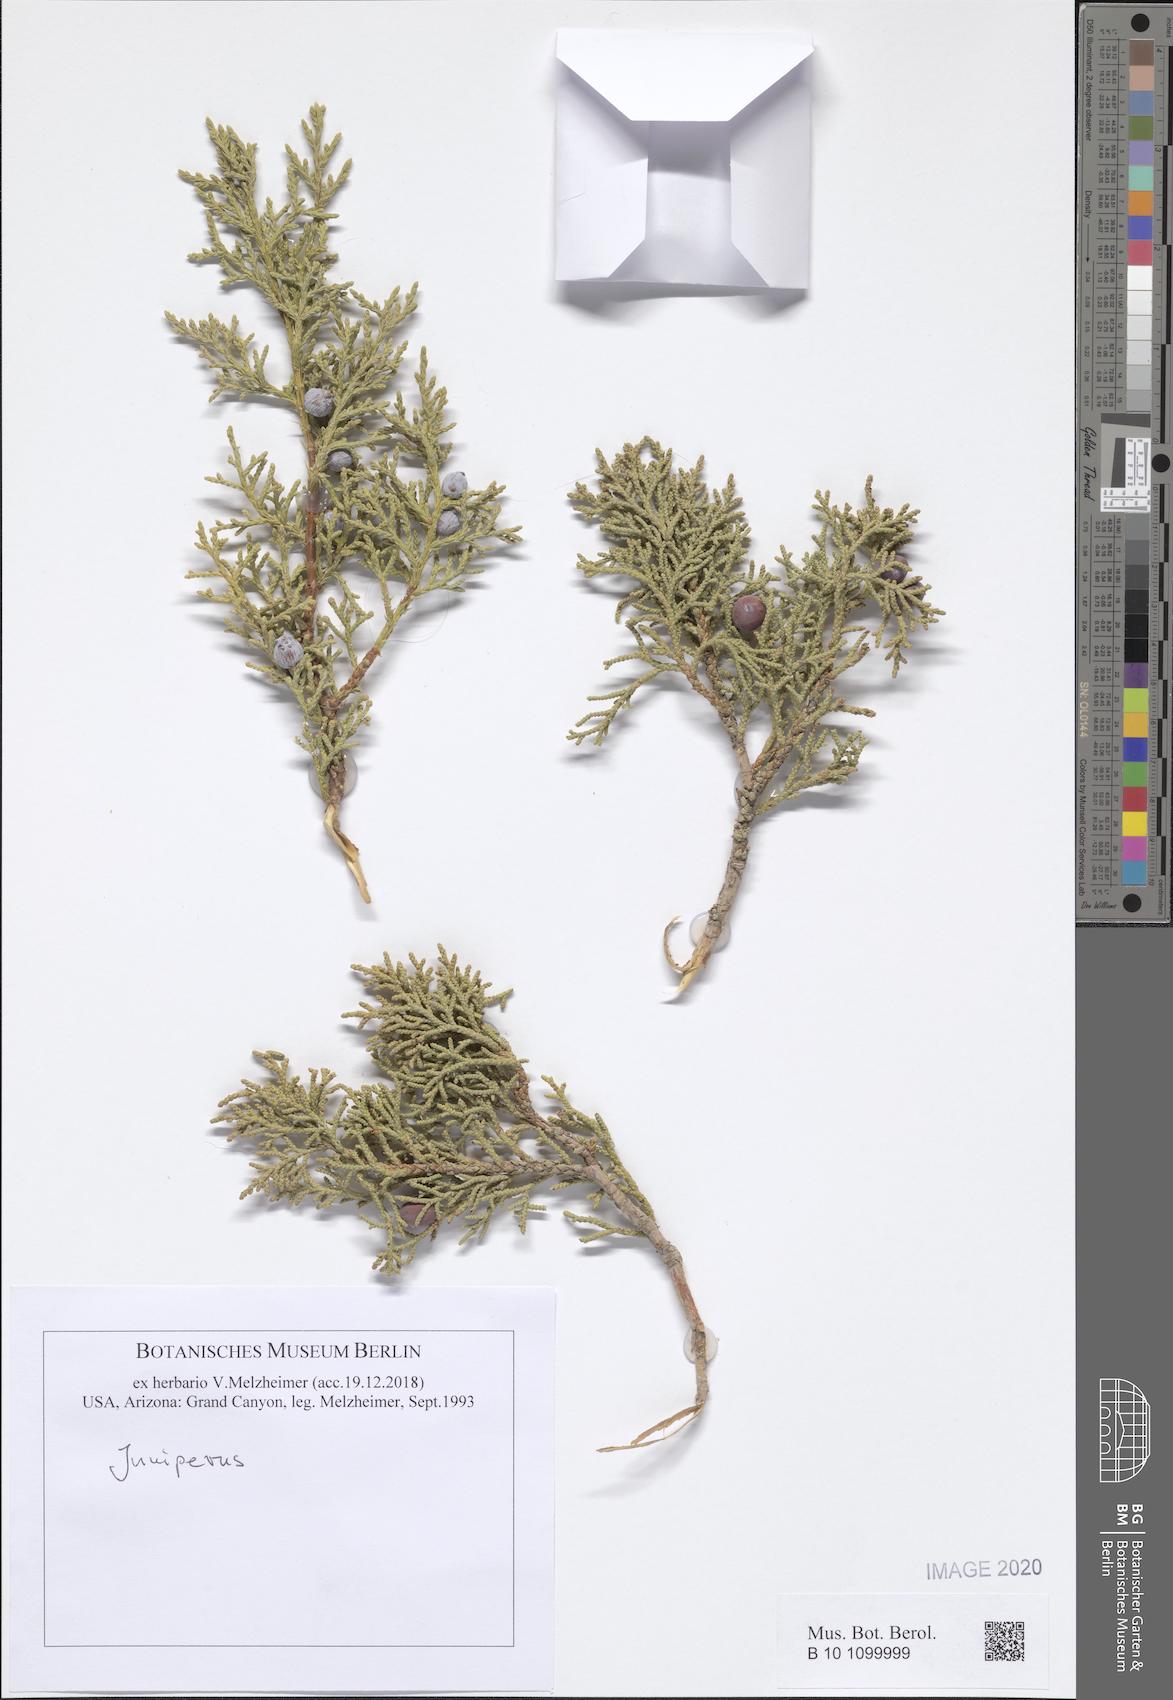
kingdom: Plantae
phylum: Tracheophyta
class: Pinopsida
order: Pinales
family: Cupressaceae
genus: Juniperus
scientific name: Juniperus
